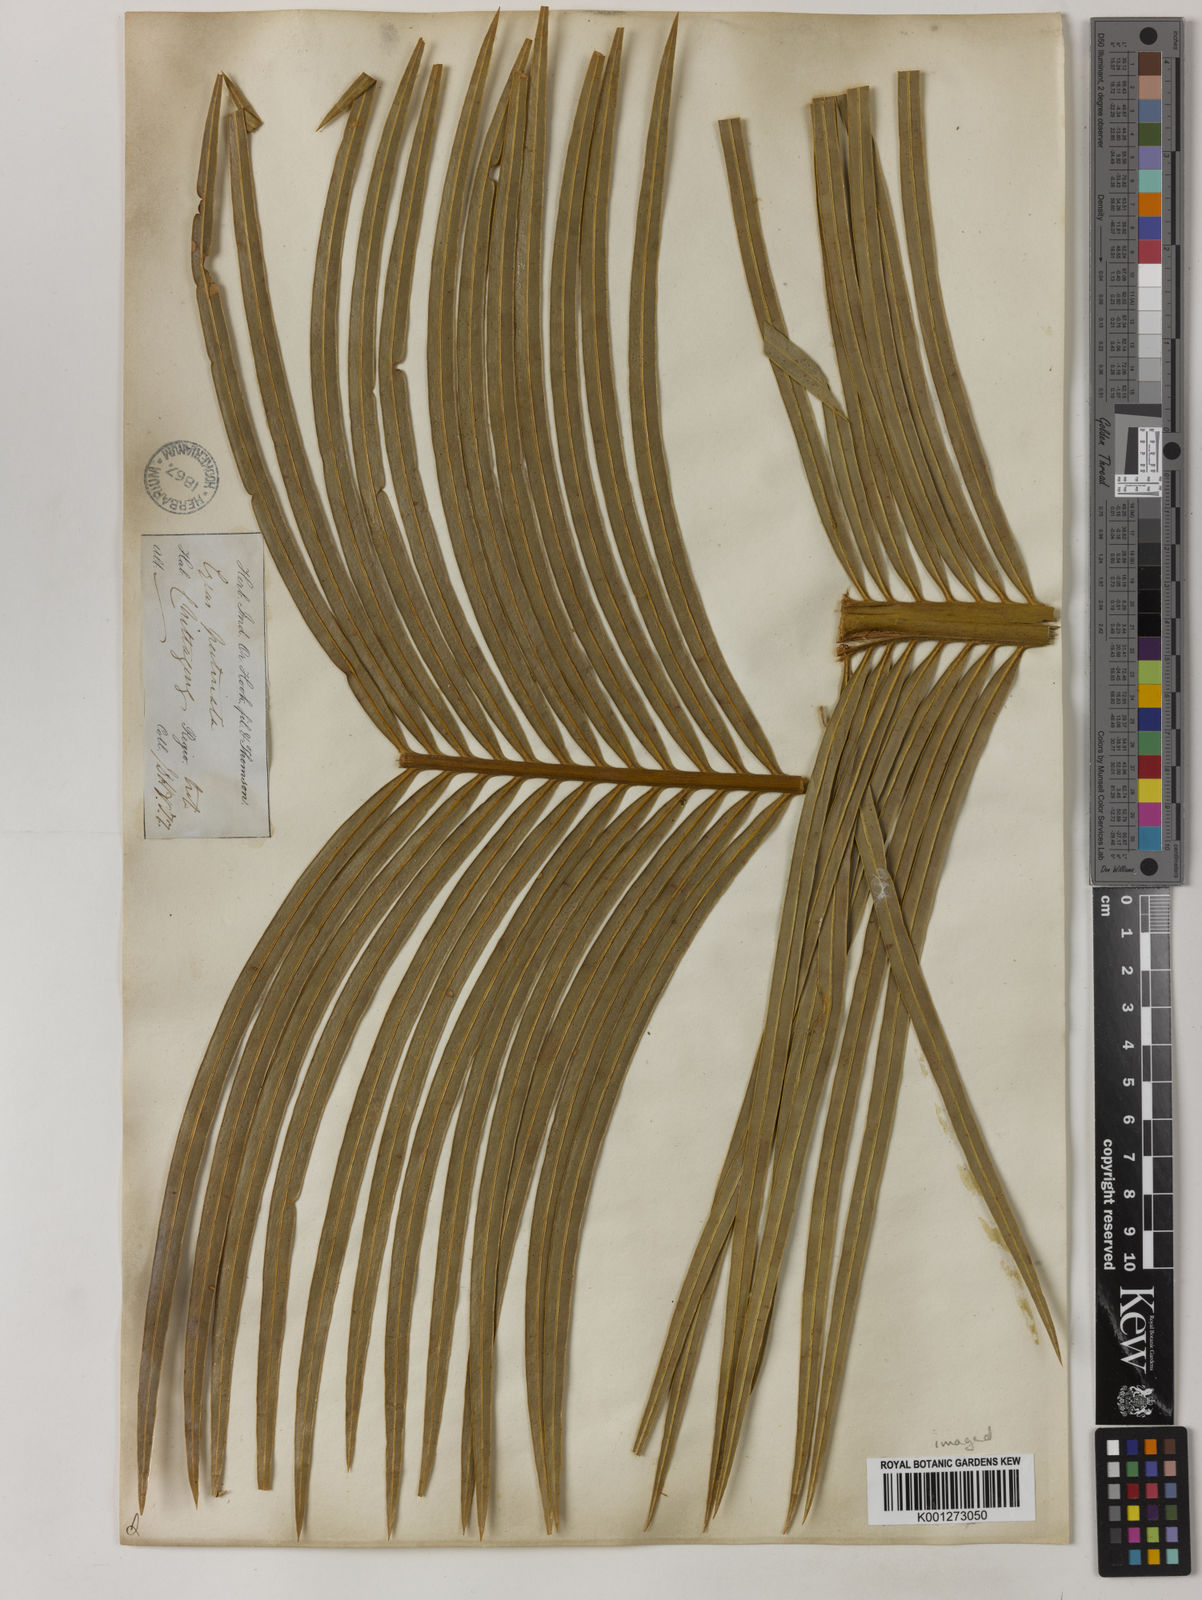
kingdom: Plantae
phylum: Tracheophyta
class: Cycadopsida
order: Cycadales
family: Cycadaceae
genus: Cycas
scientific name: Cycas pectinata
